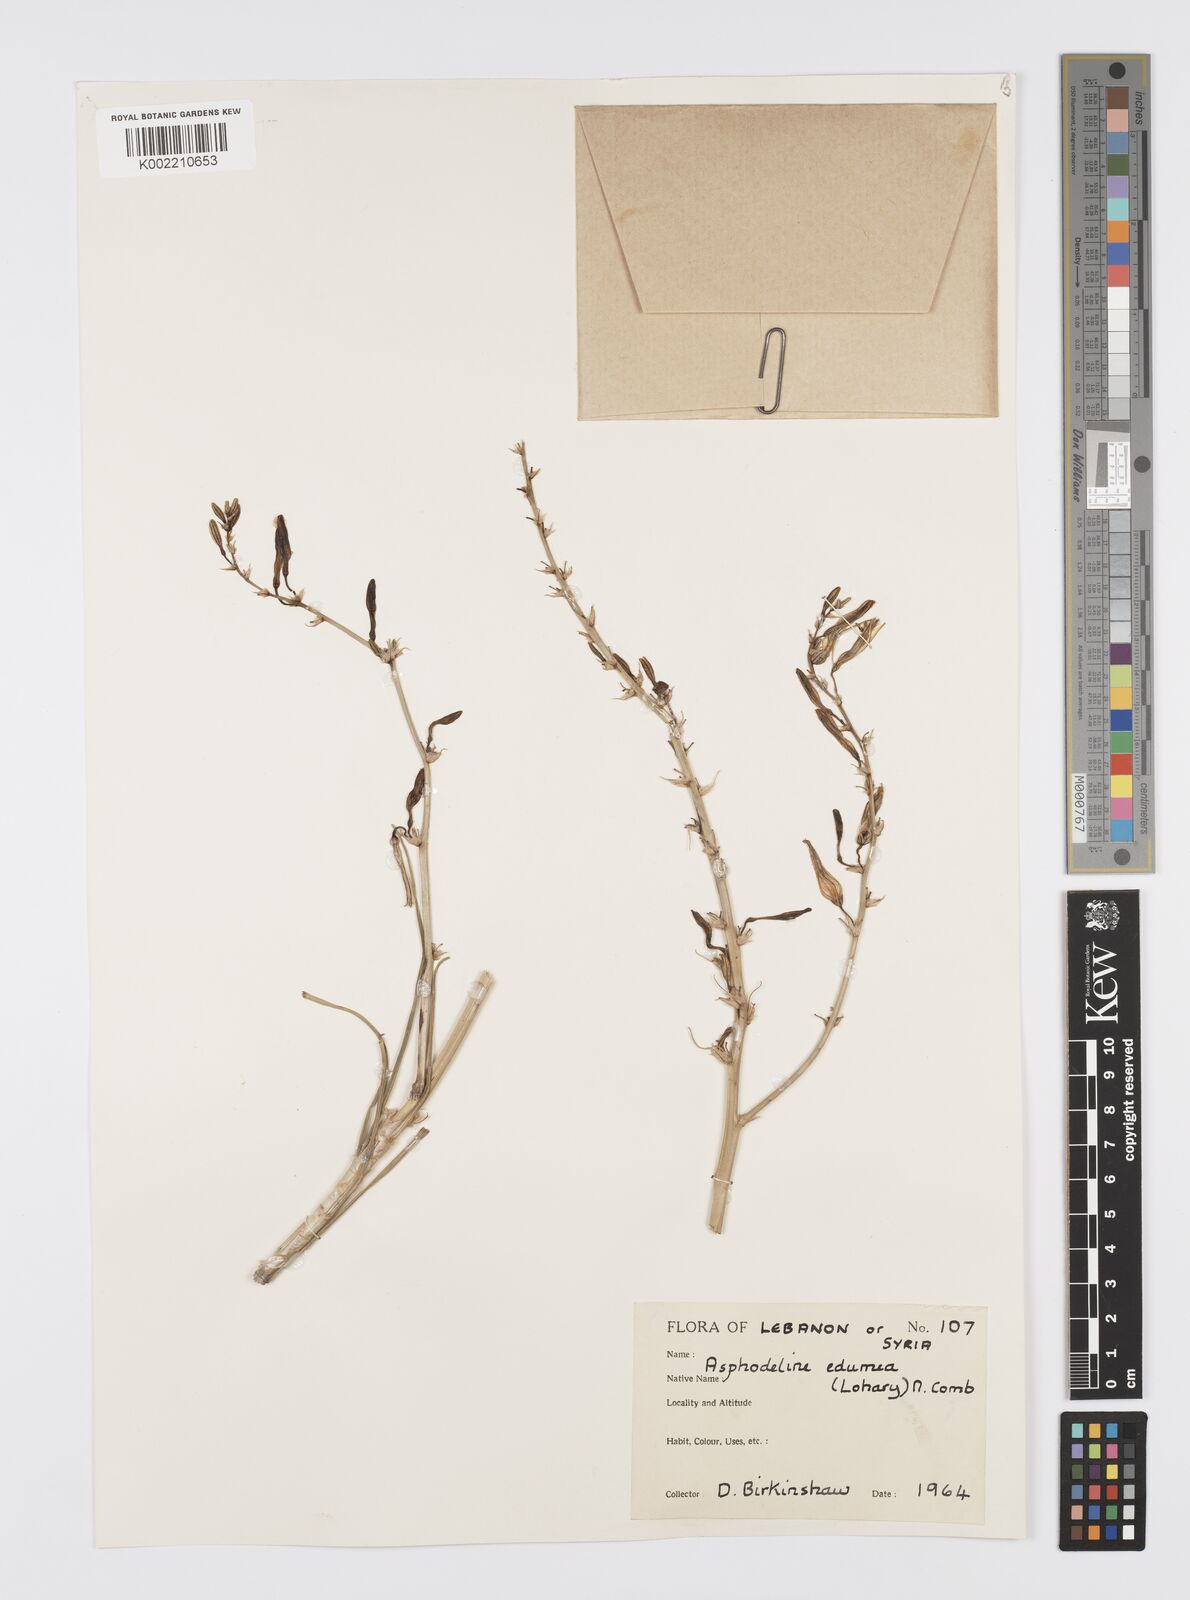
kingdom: Plantae
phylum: Tracheophyta
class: Liliopsida
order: Asparagales
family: Asphodelaceae
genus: Asphodeline
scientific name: Asphodeline brevicaulis
